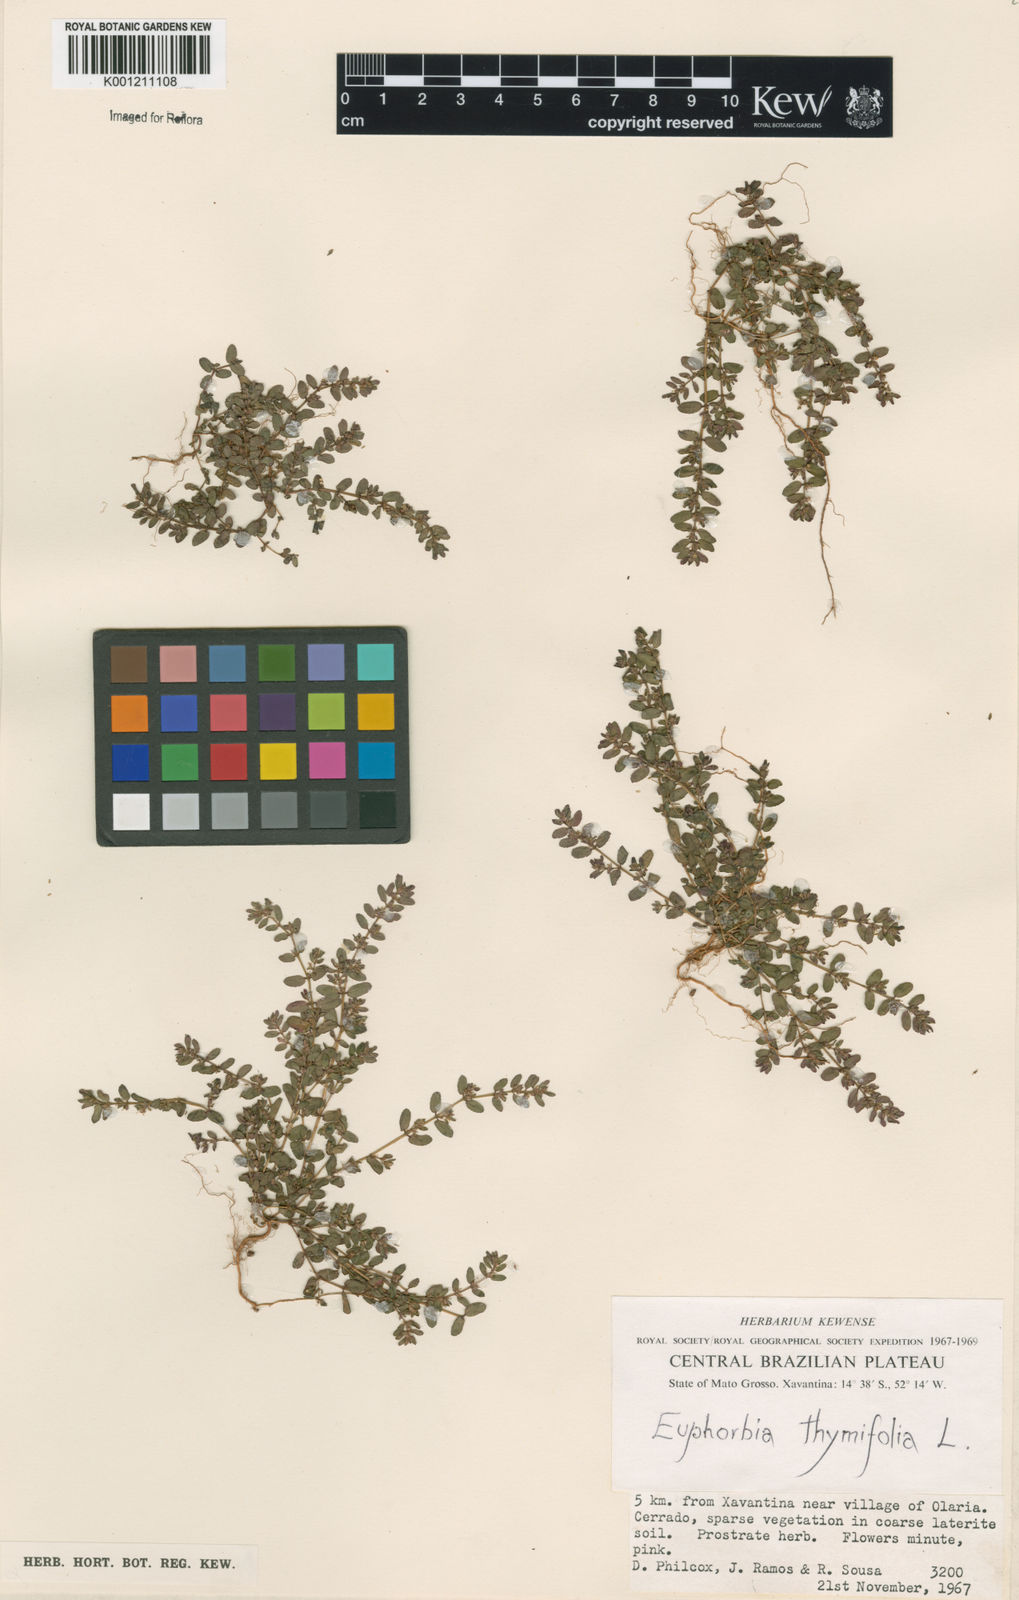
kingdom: Plantae
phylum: Tracheophyta
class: Magnoliopsida
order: Malpighiales
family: Euphorbiaceae
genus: Euphorbia
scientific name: Euphorbia thymifolia
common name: Gulf sandmat
